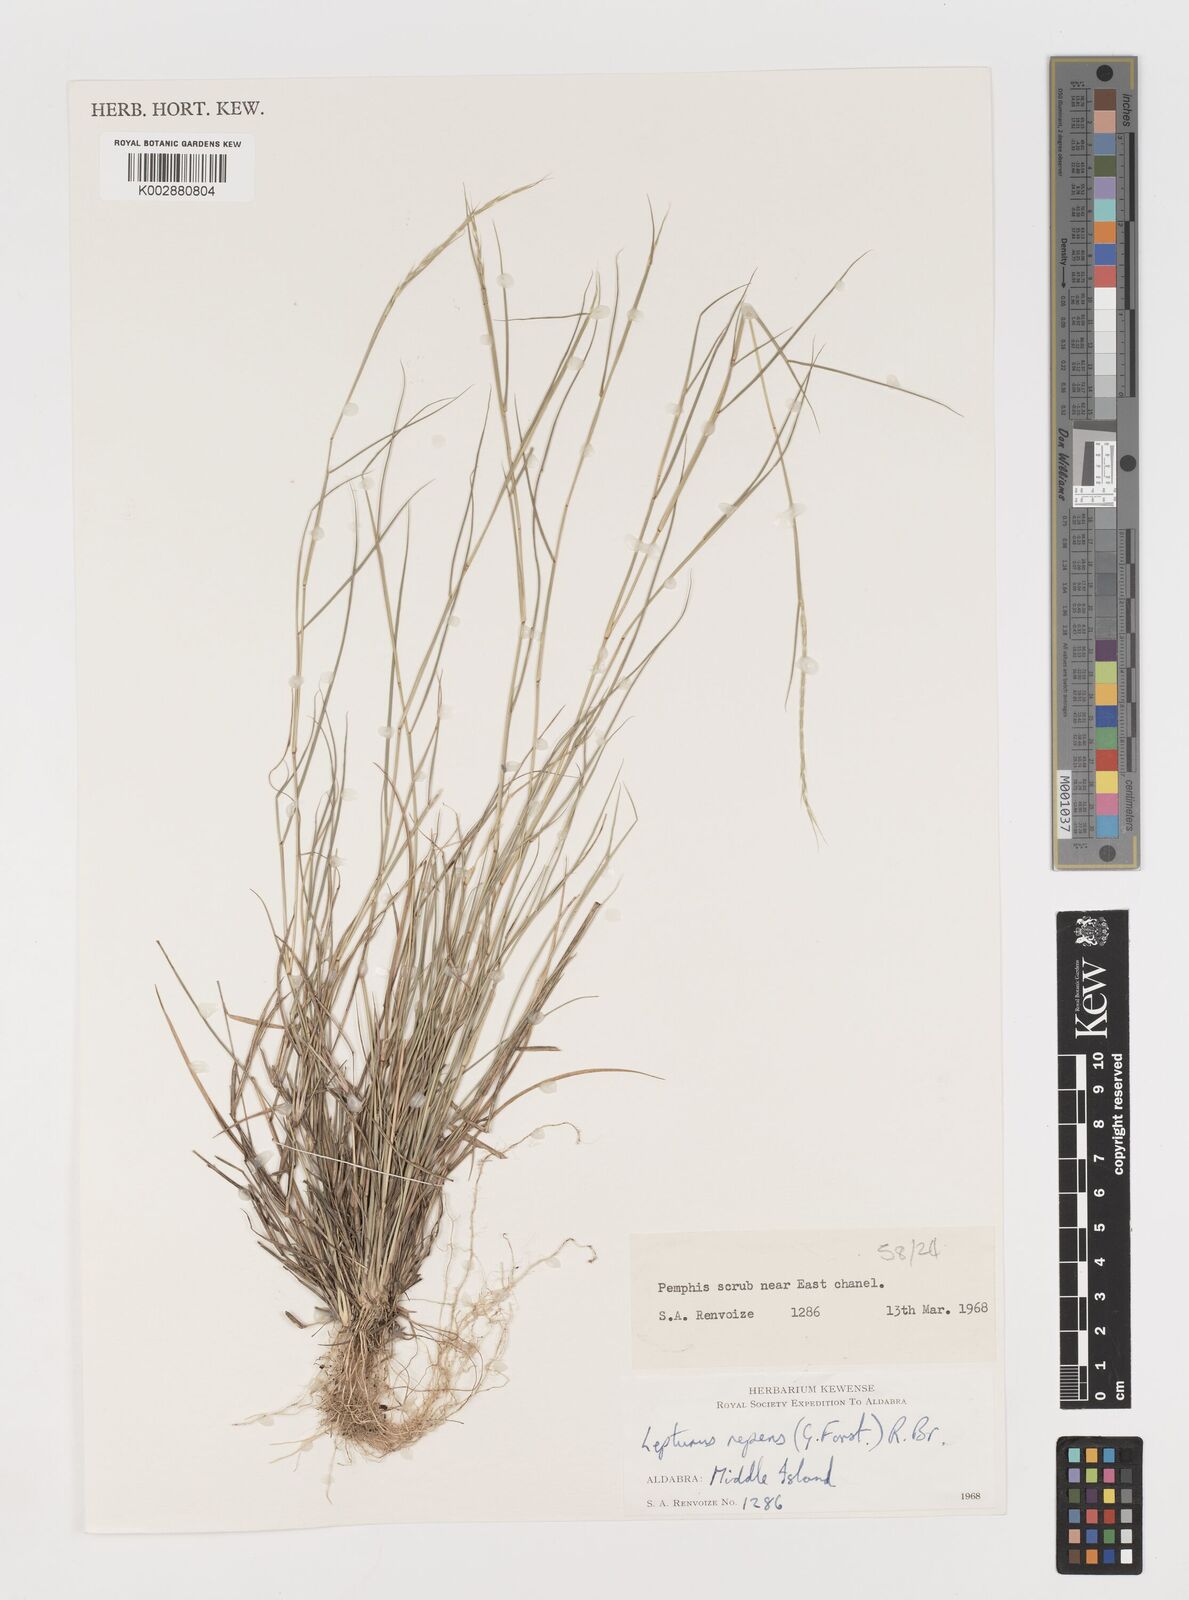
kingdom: Plantae
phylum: Tracheophyta
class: Liliopsida
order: Poales
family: Poaceae
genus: Lepturus
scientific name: Lepturus repens
